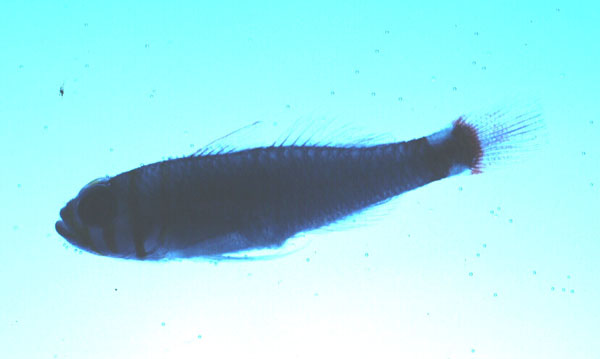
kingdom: Animalia
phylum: Chordata
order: Perciformes
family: Gobiidae
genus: Trimma
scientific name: Trimma bisella
